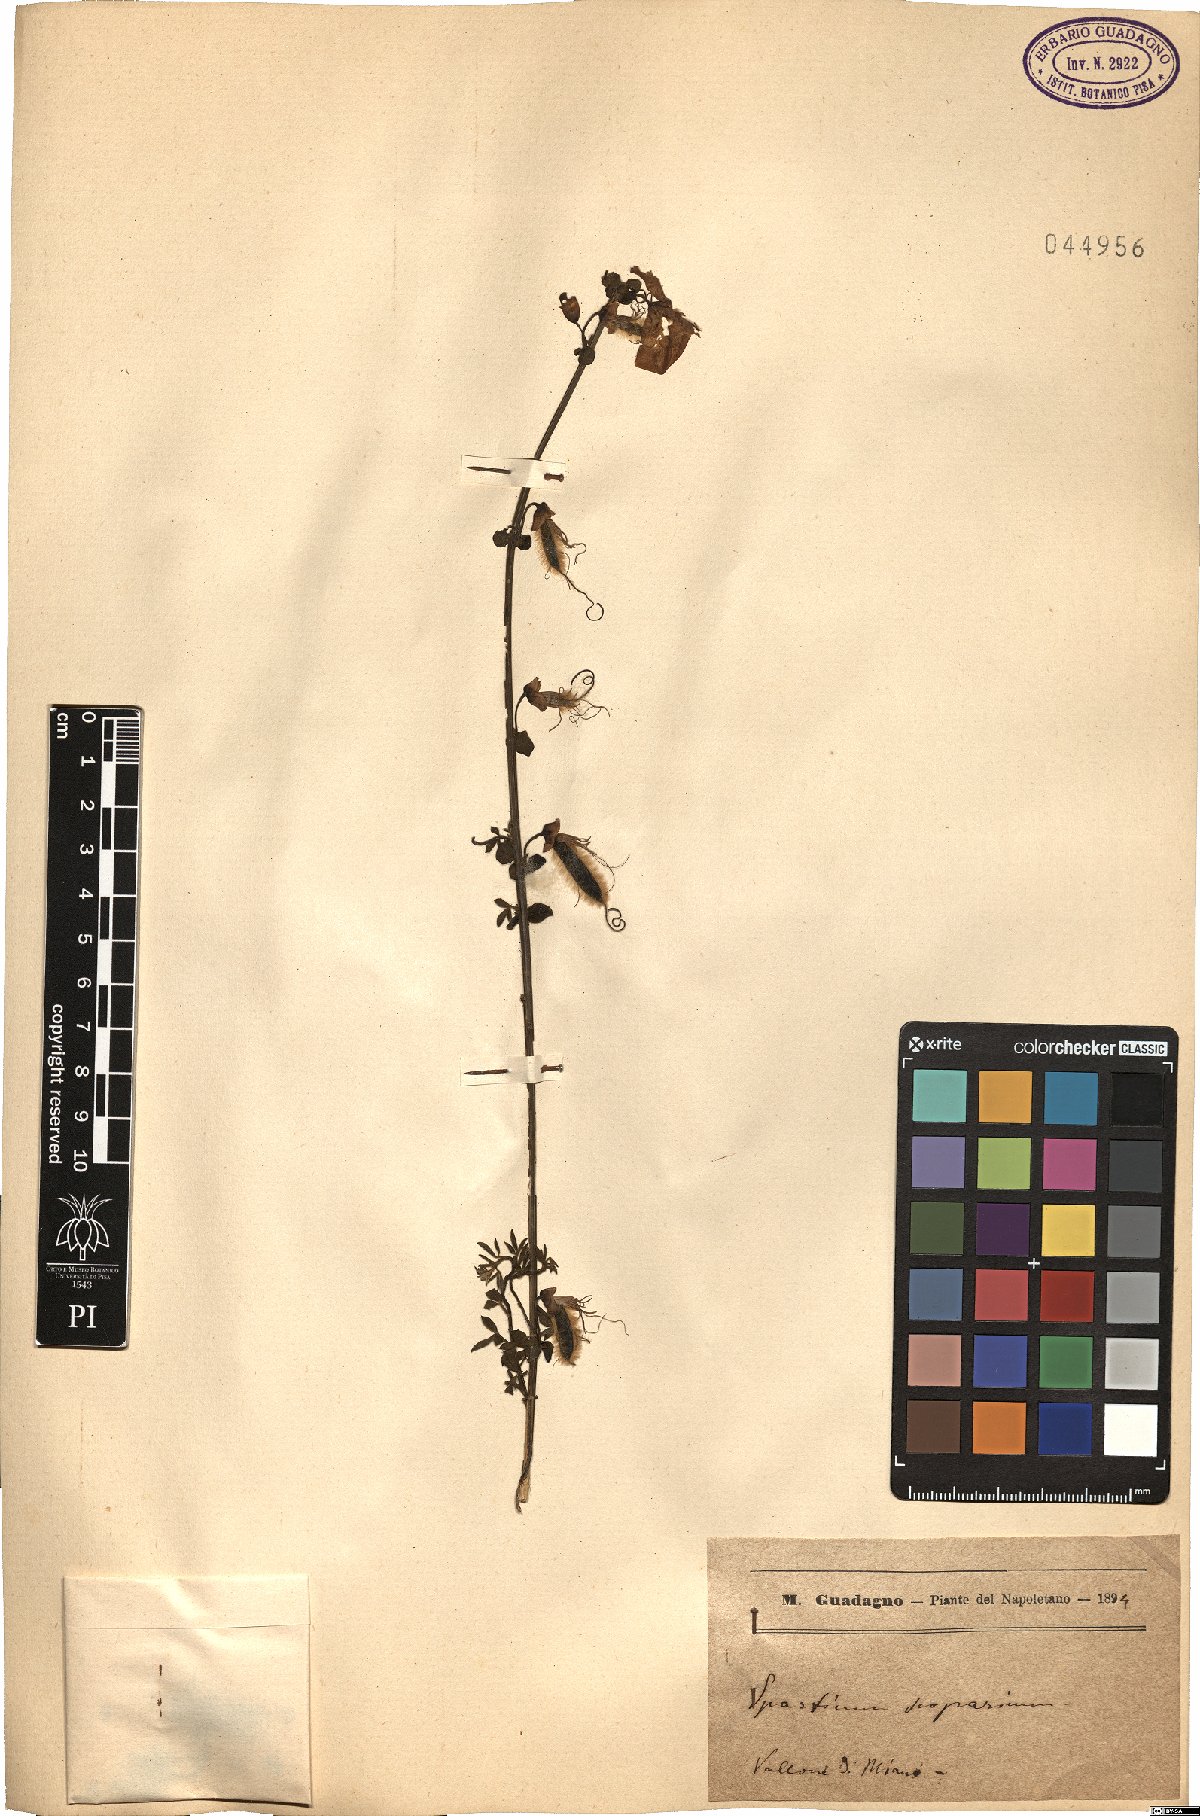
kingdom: Plantae
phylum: Tracheophyta
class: Magnoliopsida
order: Fabales
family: Fabaceae
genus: Lebeckia
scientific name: Lebeckia sepiaria
